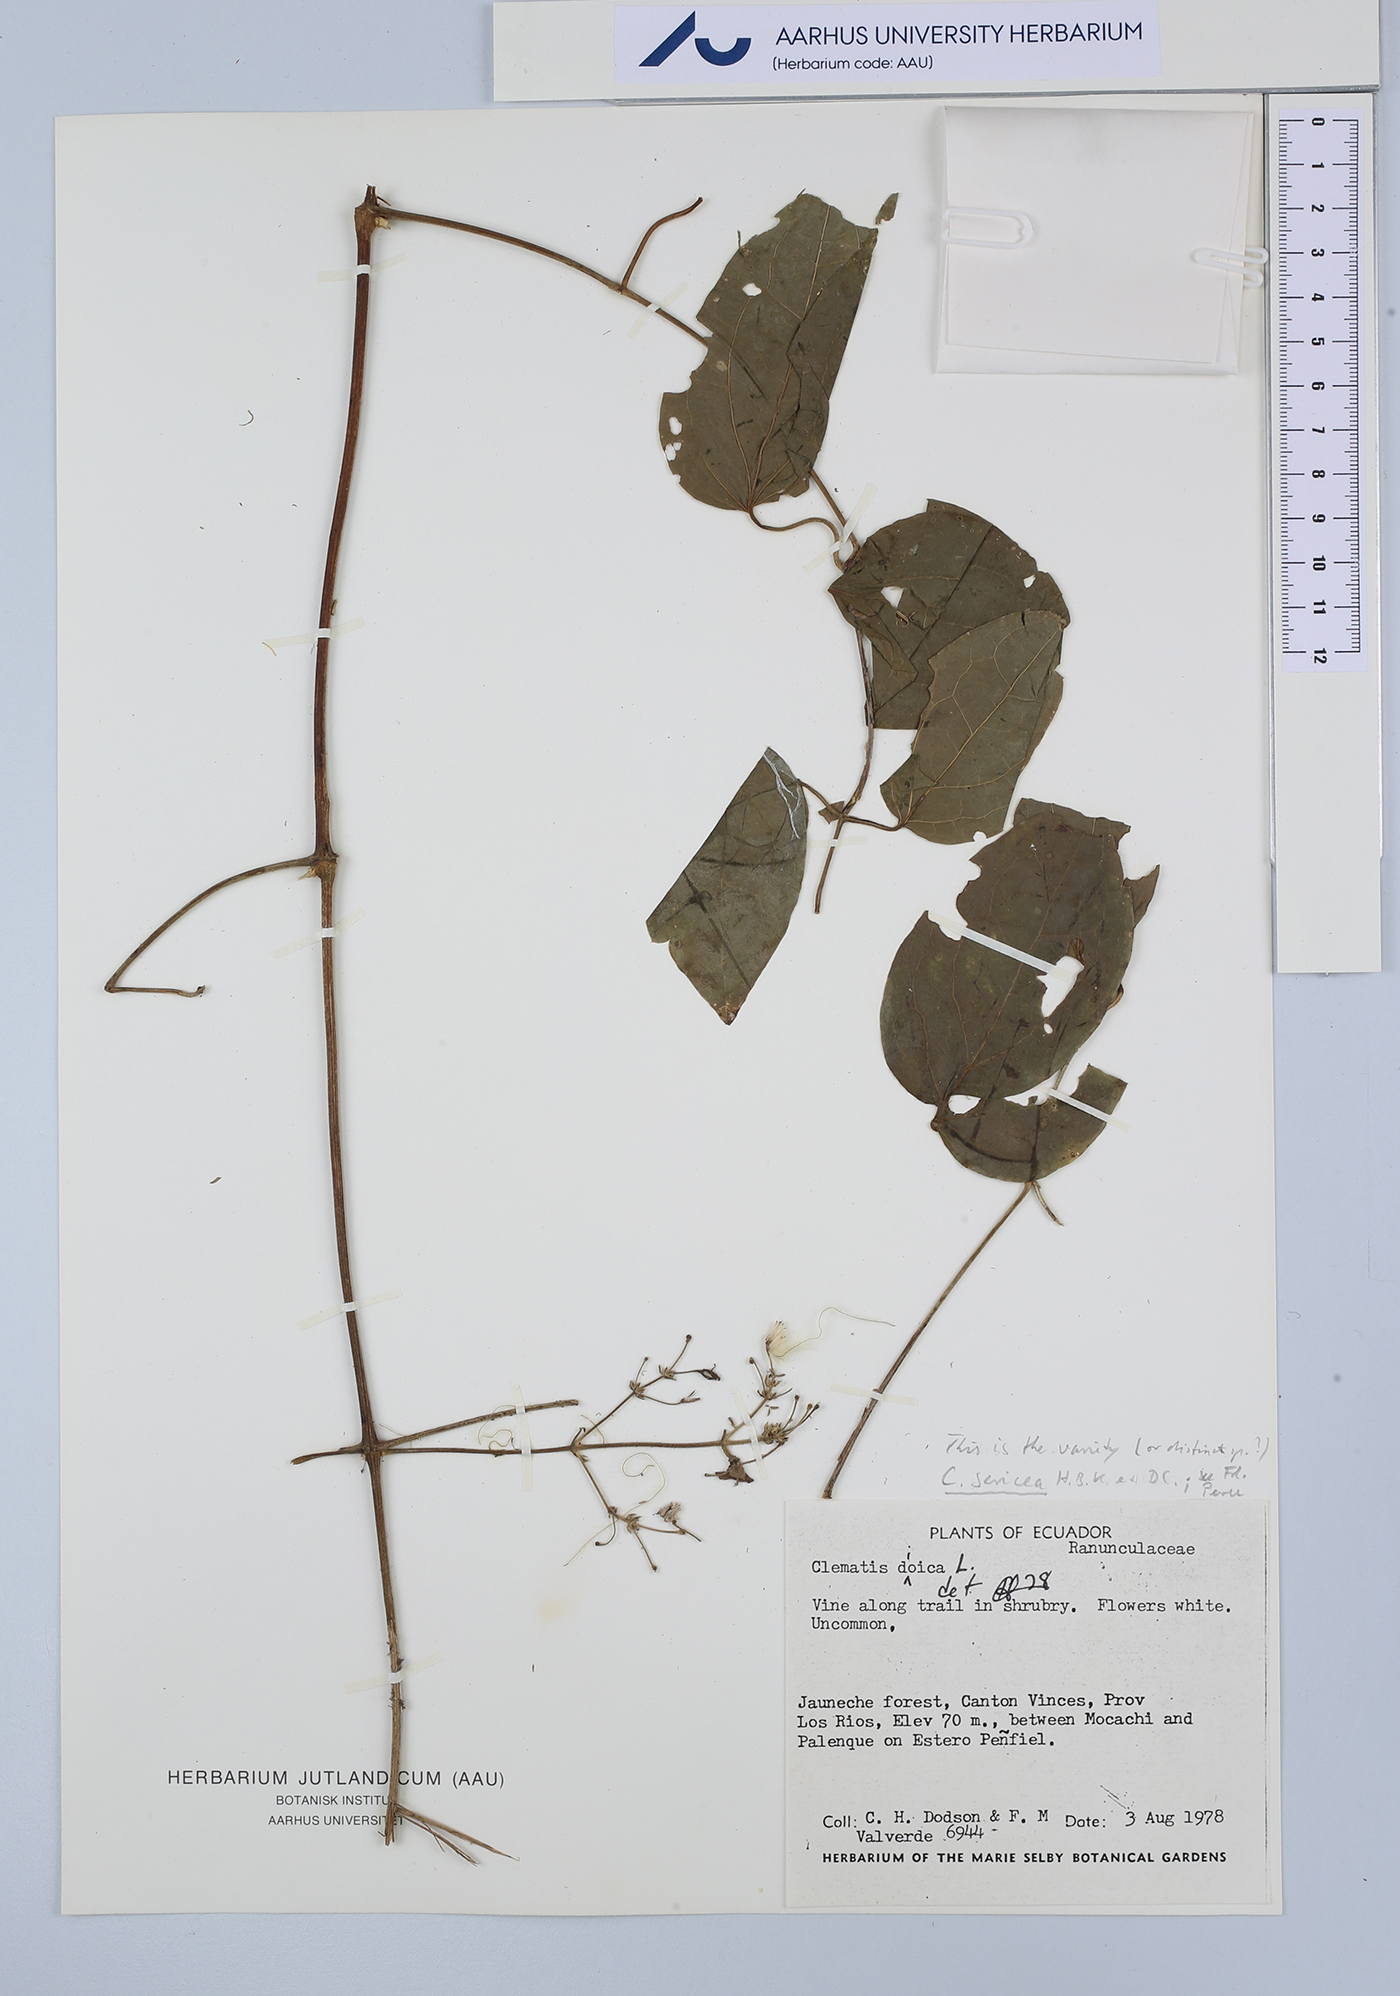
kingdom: Plantae
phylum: Tracheophyta
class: Magnoliopsida
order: Ranunculales
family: Ranunculaceae
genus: Clematis
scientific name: Clematis haenkeana
